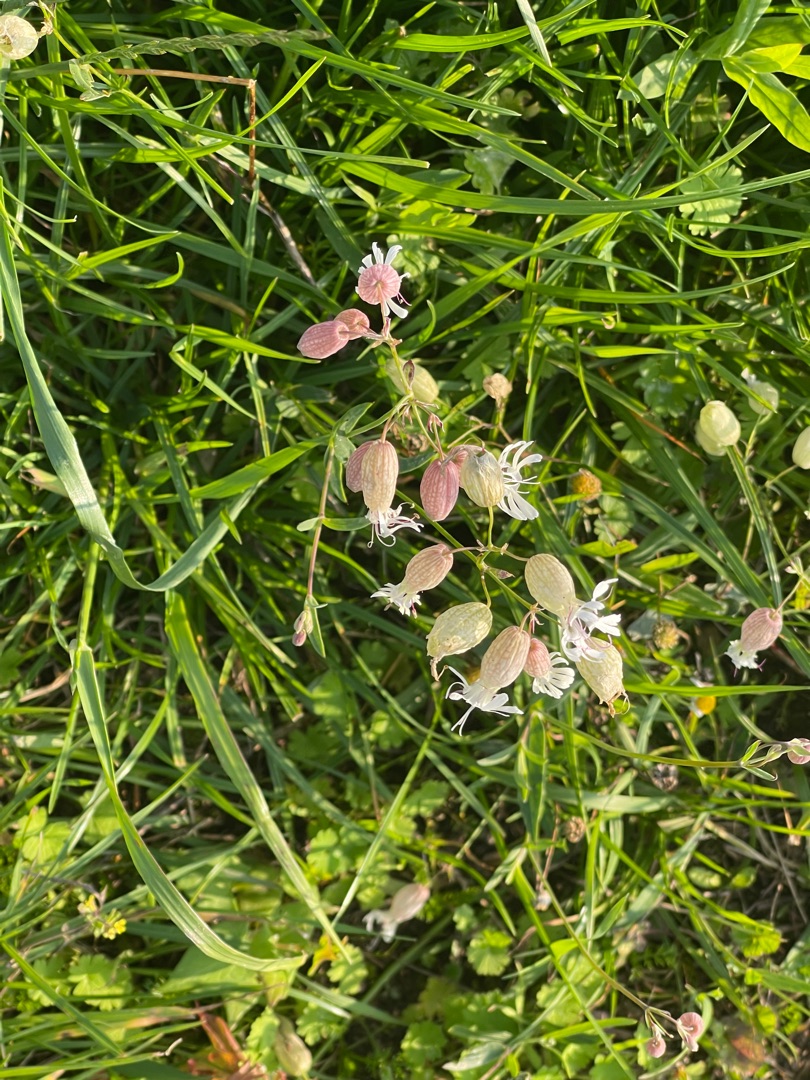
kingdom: Plantae
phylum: Tracheophyta
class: Magnoliopsida
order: Caryophyllales
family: Caryophyllaceae
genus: Silene
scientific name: Silene vulgaris
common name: Blæresmælde
